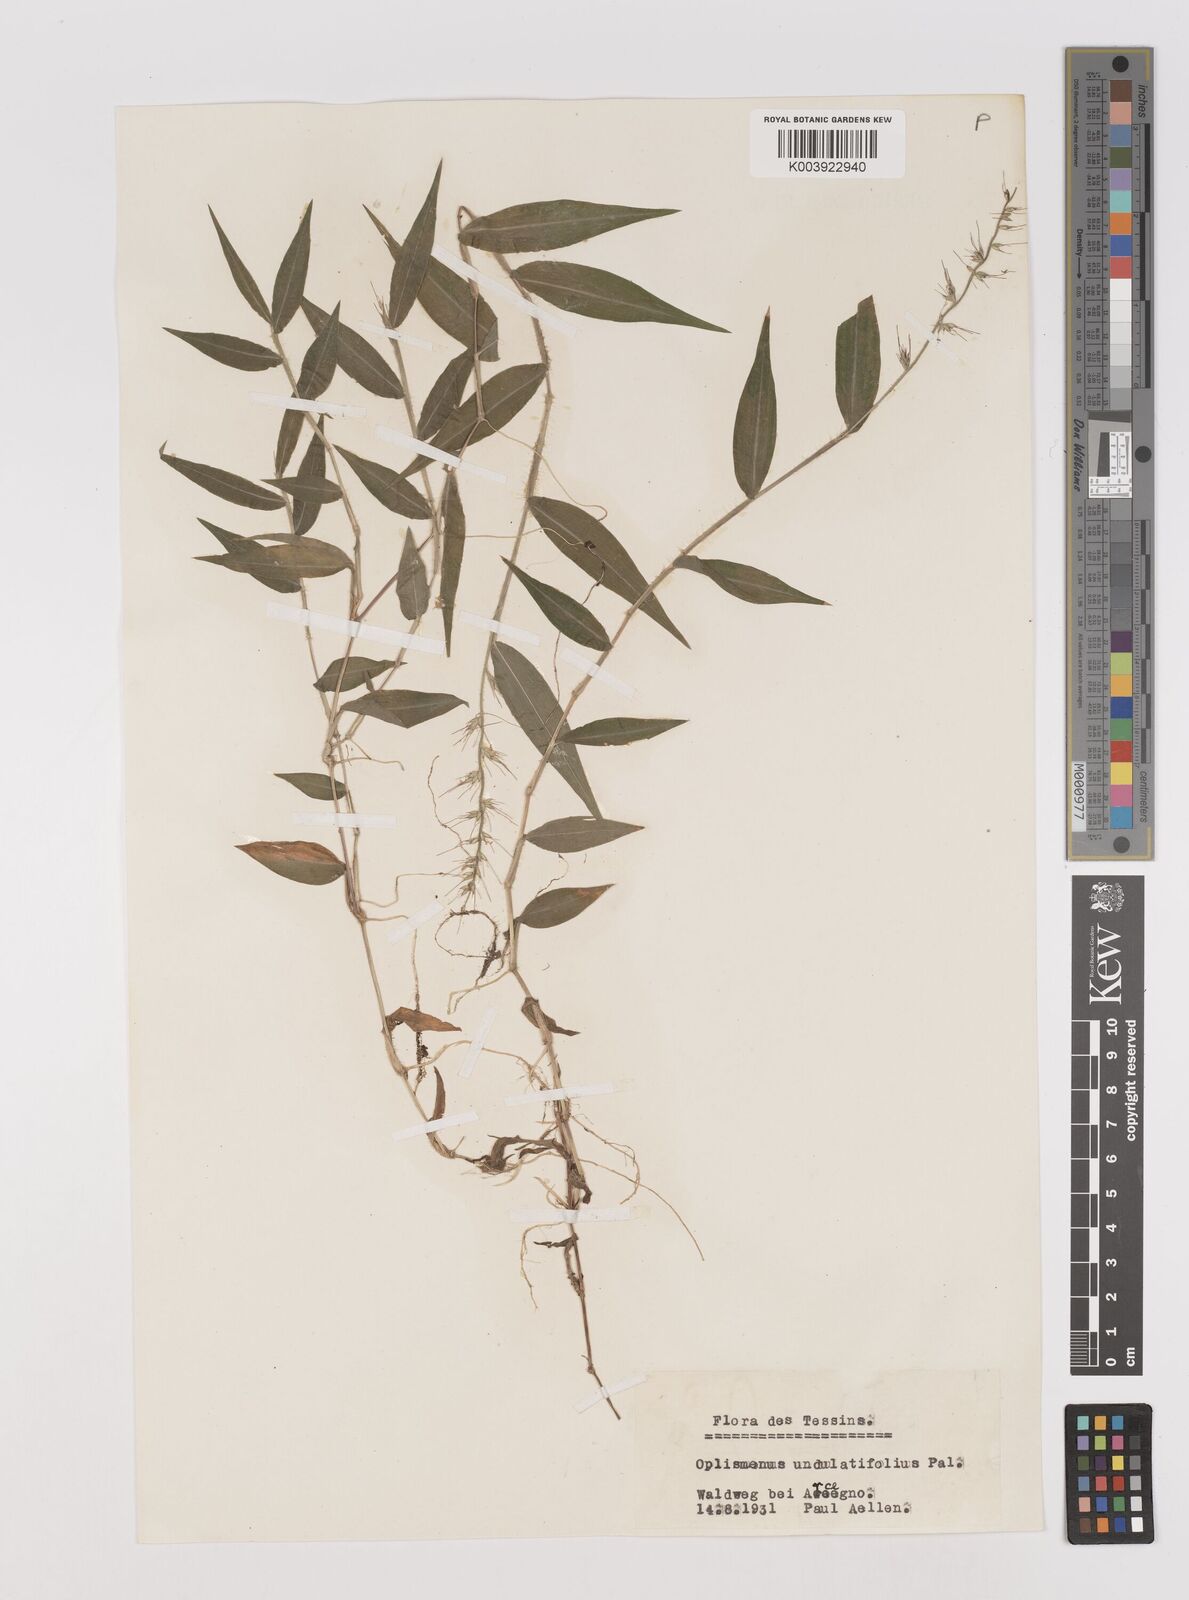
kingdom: Plantae
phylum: Tracheophyta
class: Liliopsida
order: Poales
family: Poaceae
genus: Oplismenus
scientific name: Oplismenus undulatifolius
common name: Wavyleaf basketgrass
